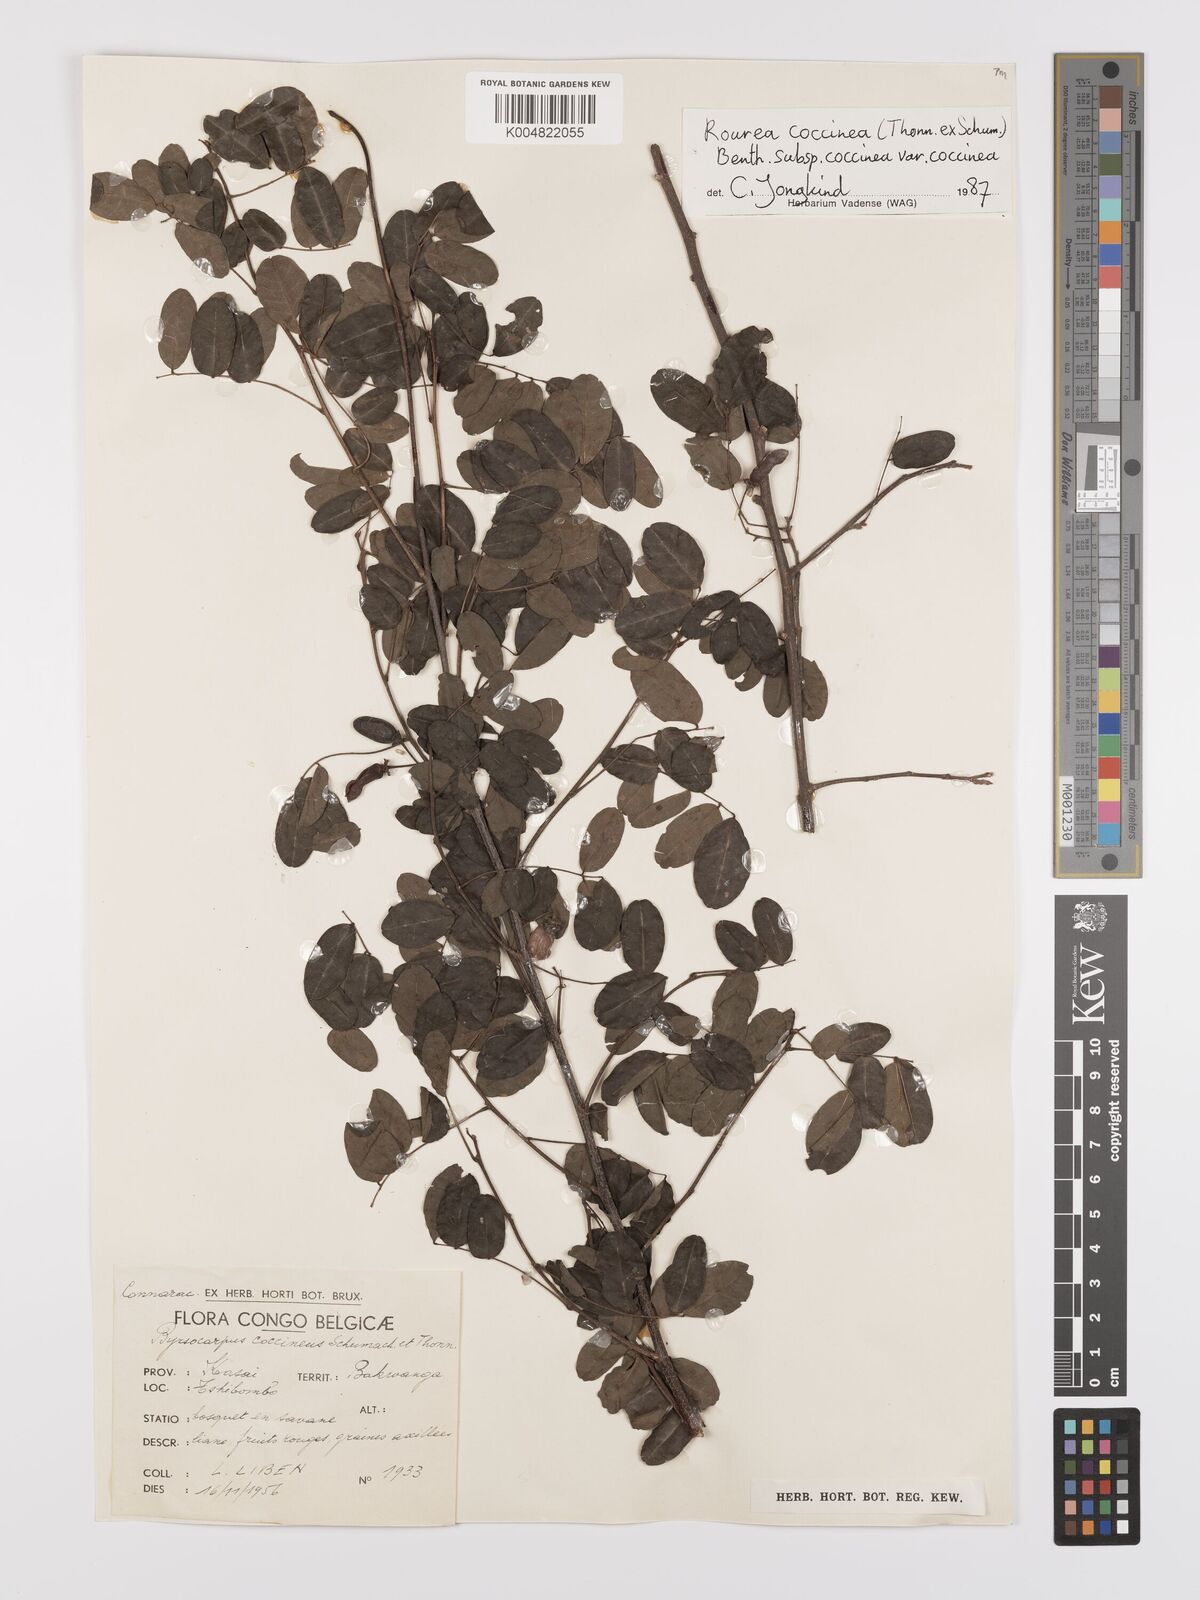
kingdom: Plantae
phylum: Tracheophyta
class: Magnoliopsida
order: Oxalidales
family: Connaraceae
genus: Rourea
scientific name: Rourea coccinea
